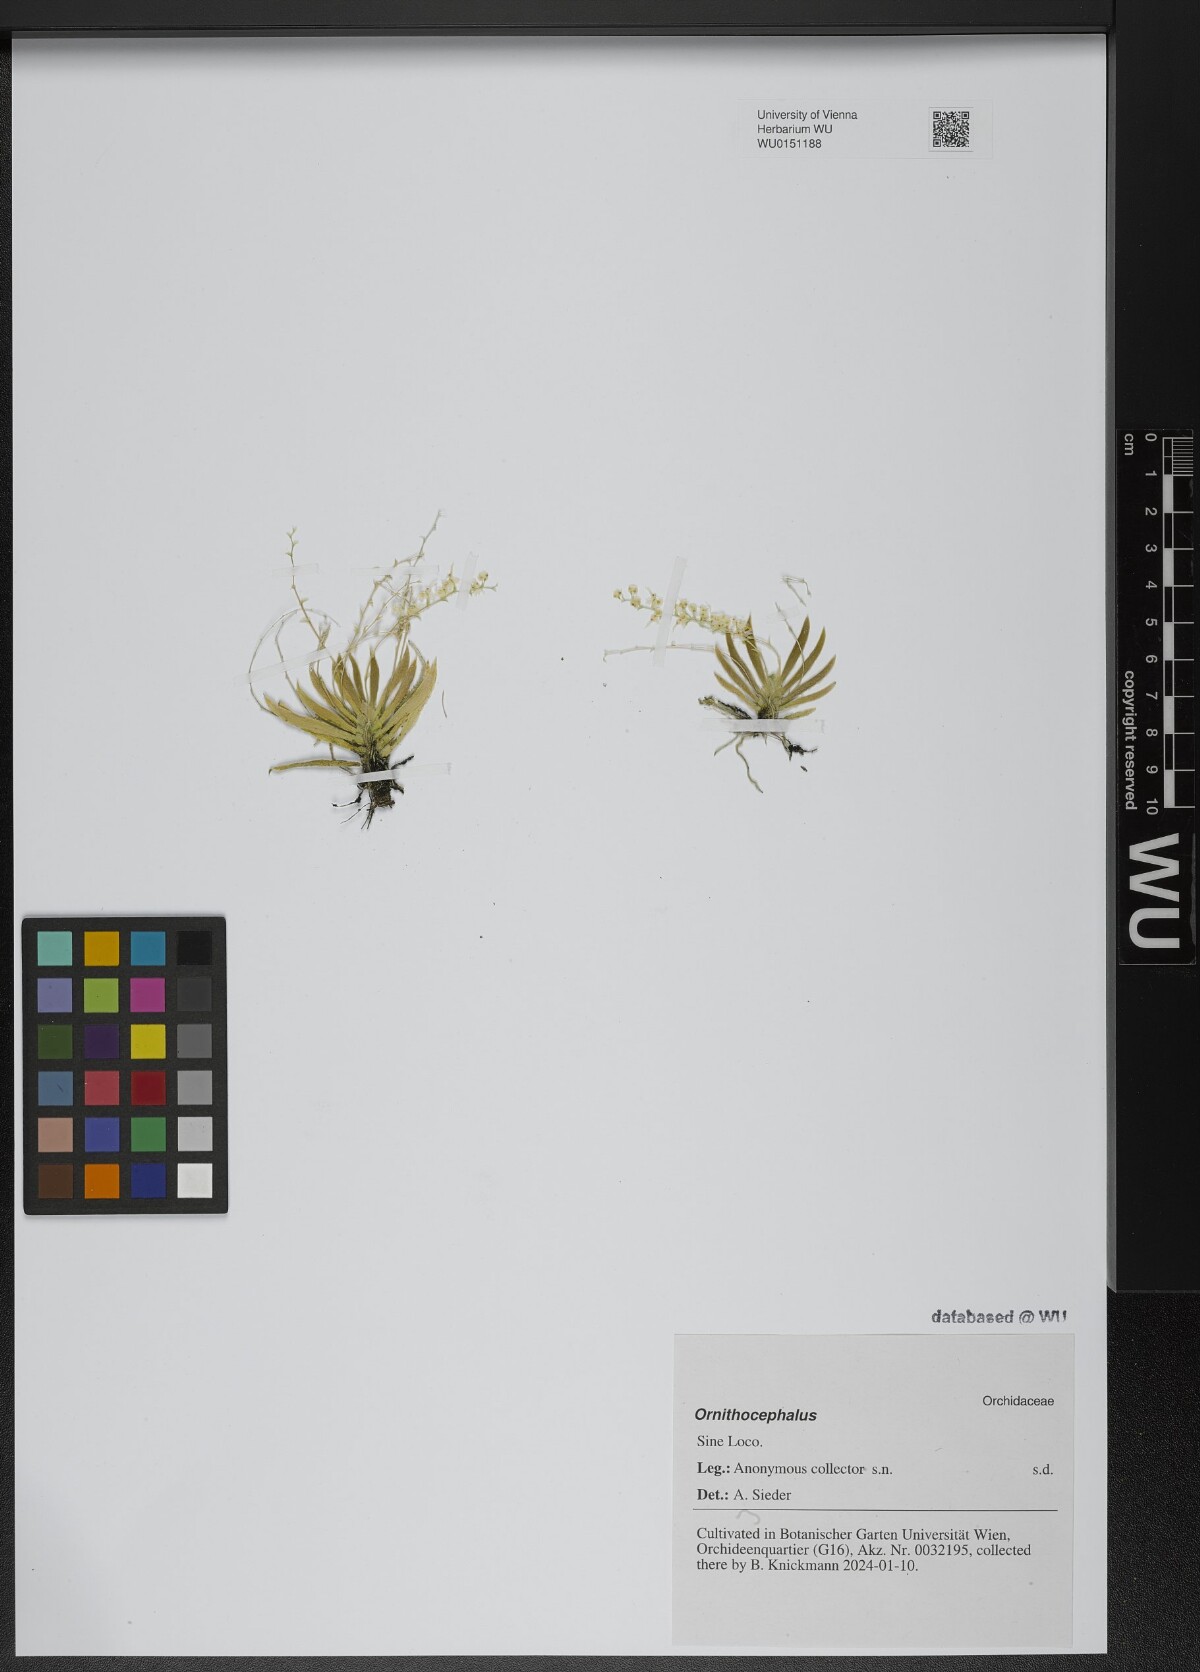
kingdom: Plantae
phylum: Tracheophyta
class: Liliopsida
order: Asparagales
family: Orchidaceae
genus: Ornithocephalus
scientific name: Ornithocephalus
